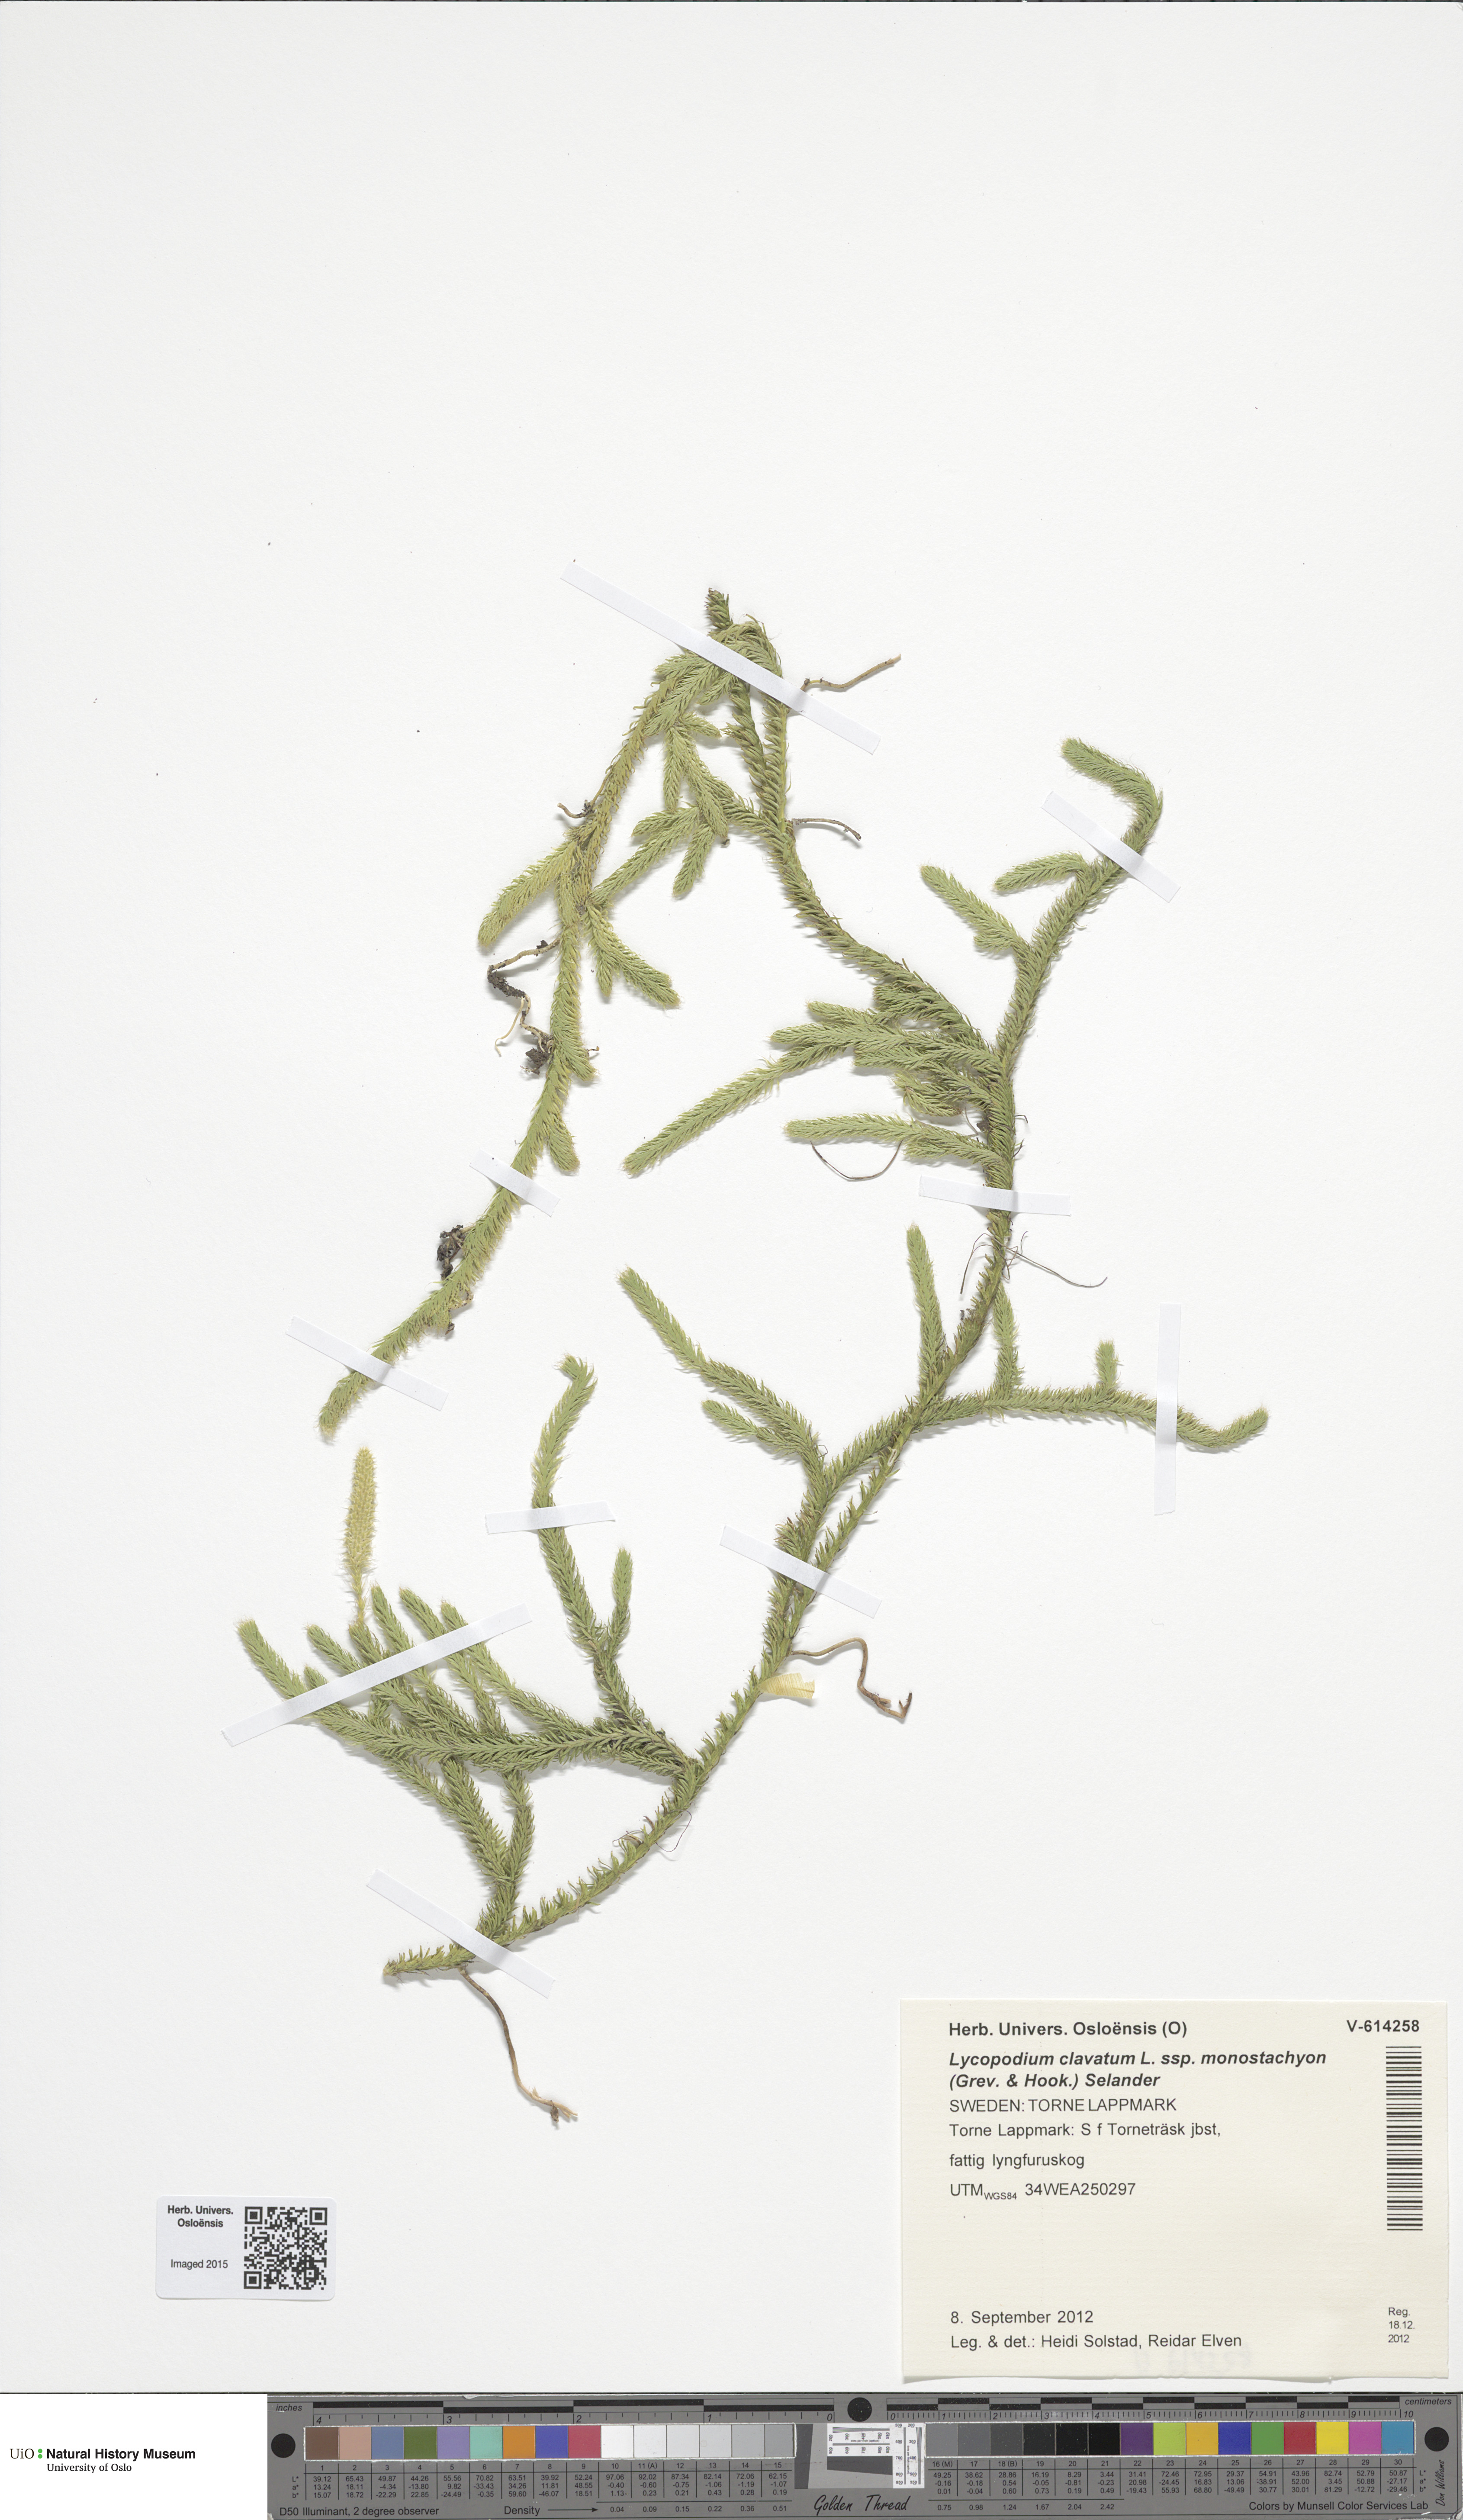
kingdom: Plantae
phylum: Tracheophyta
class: Lycopodiopsida
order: Lycopodiales
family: Lycopodiaceae
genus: Lycopodium
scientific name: Lycopodium lagopus
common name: One-cone clubmoss
